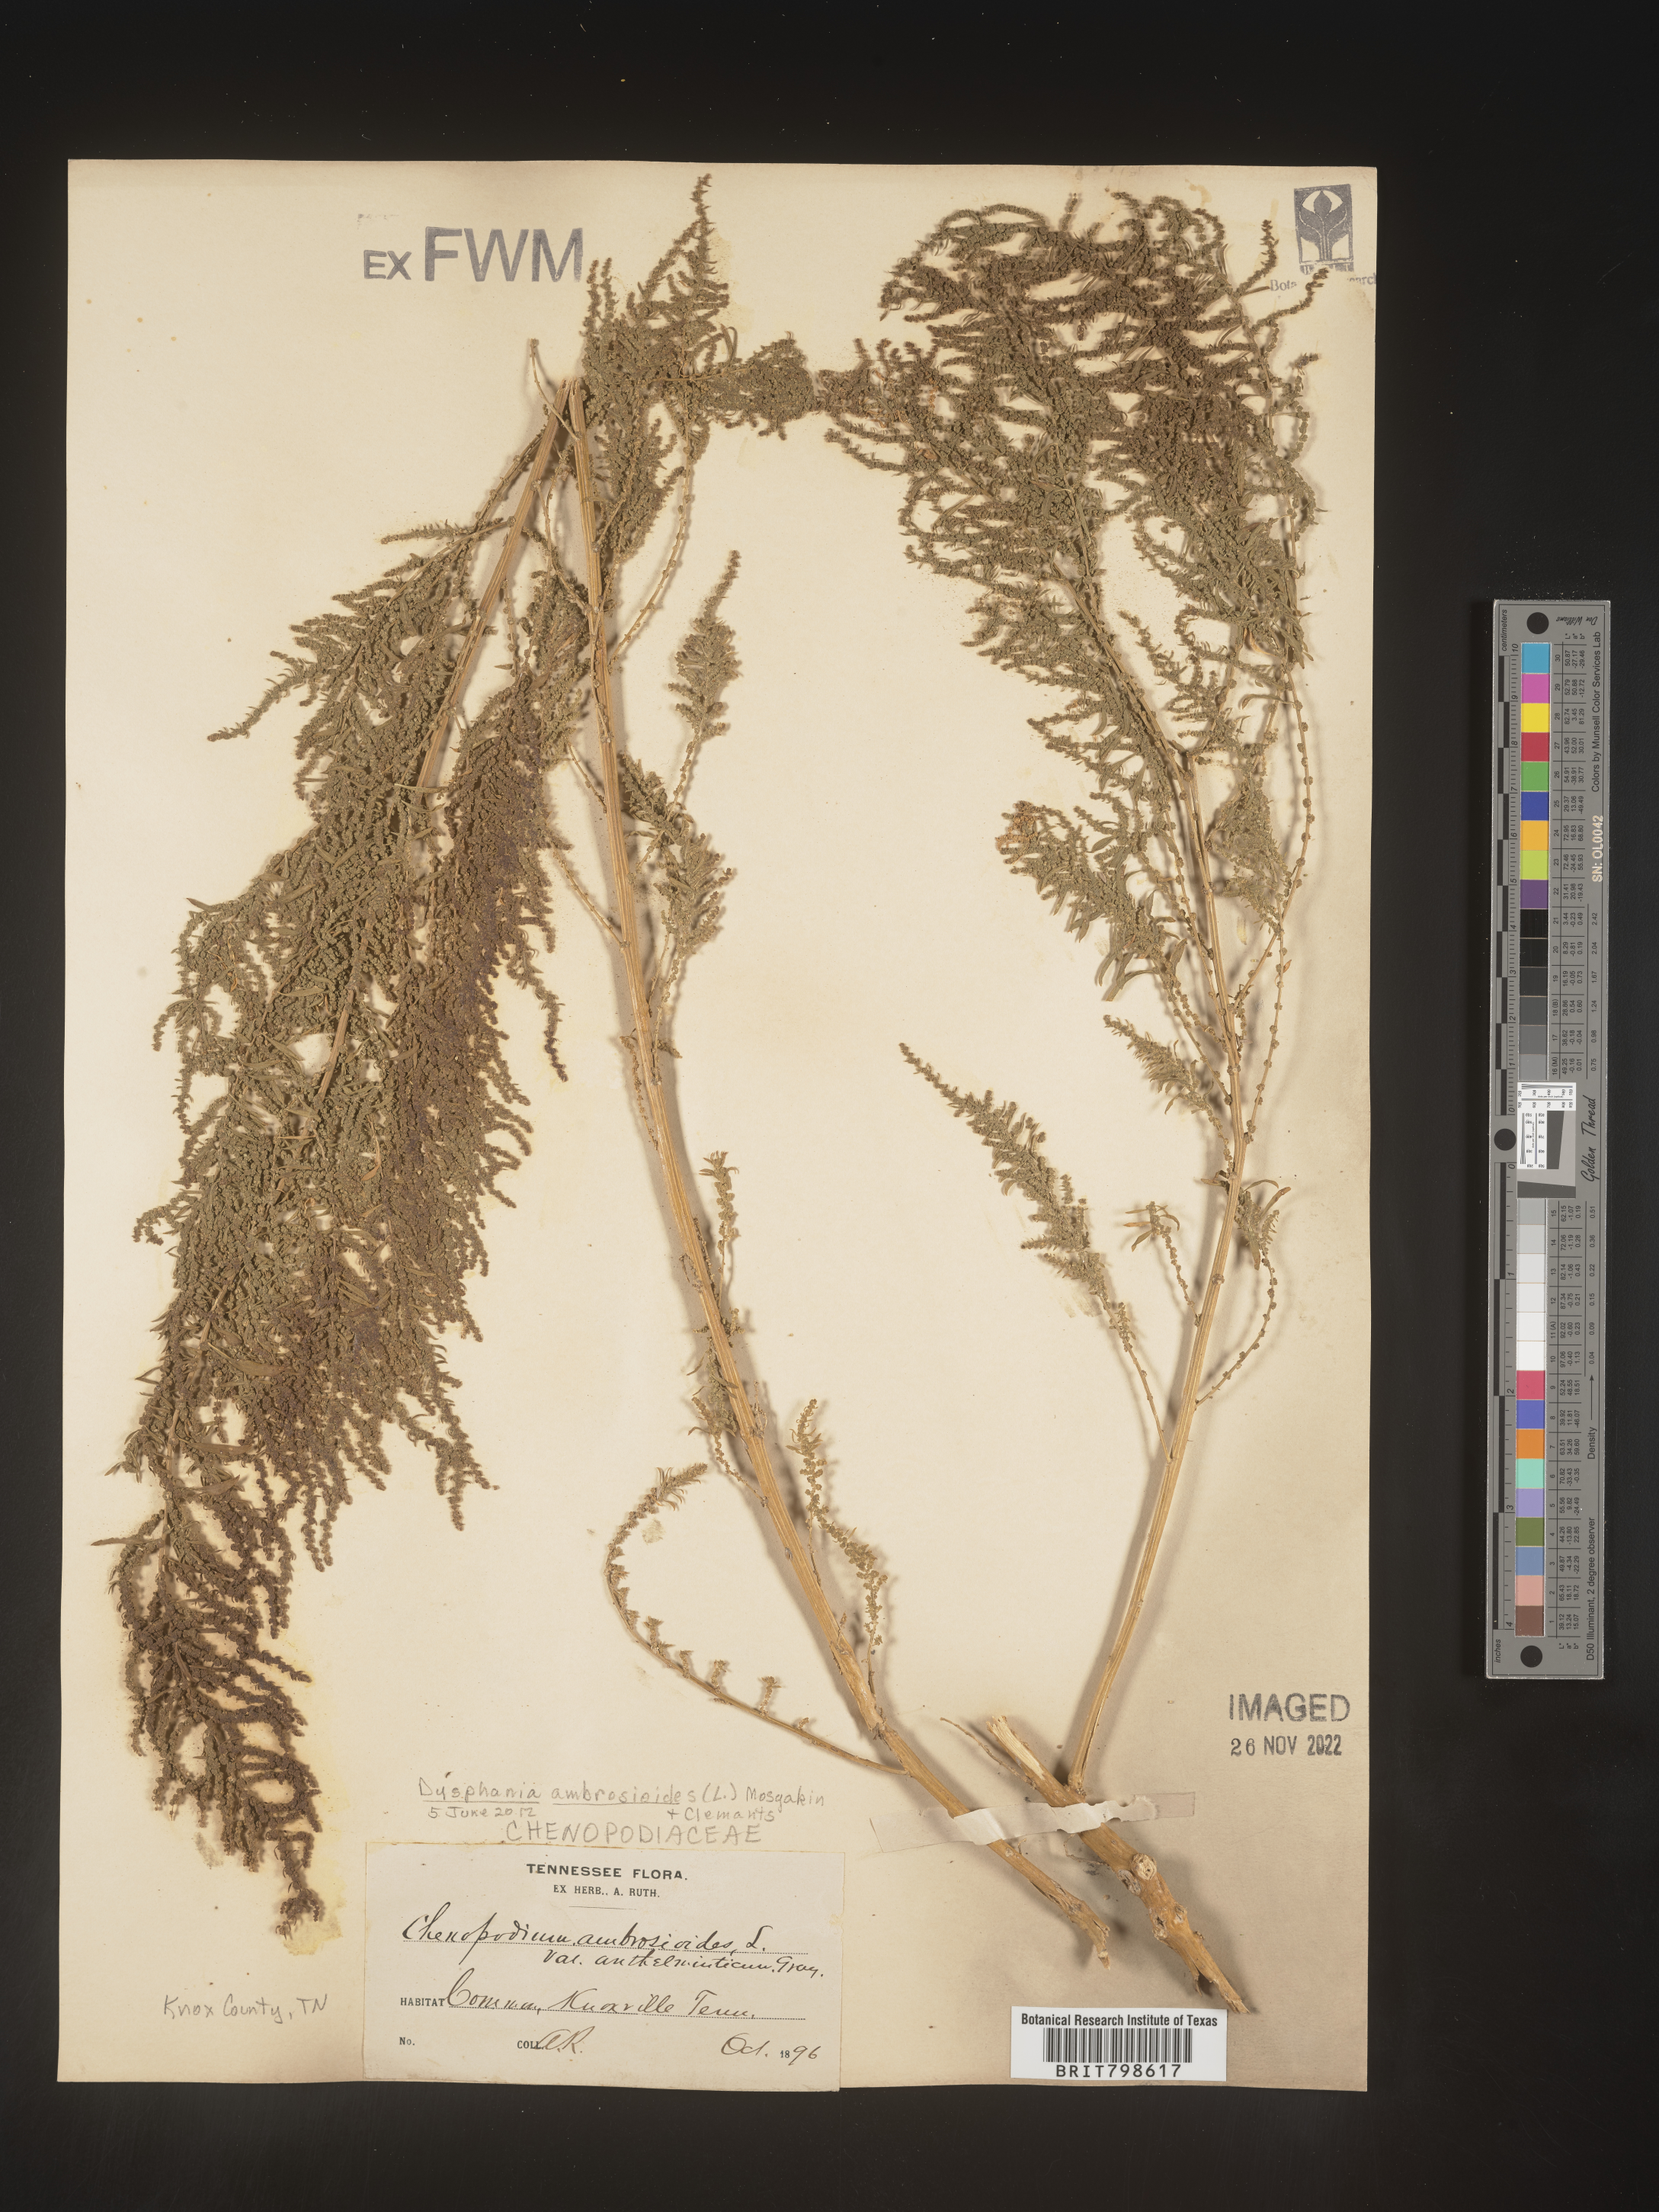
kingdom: Plantae
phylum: Tracheophyta
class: Magnoliopsida
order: Caryophyllales
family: Amaranthaceae
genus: Dysphania
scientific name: Dysphania ambrosioides
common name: Wormseed
